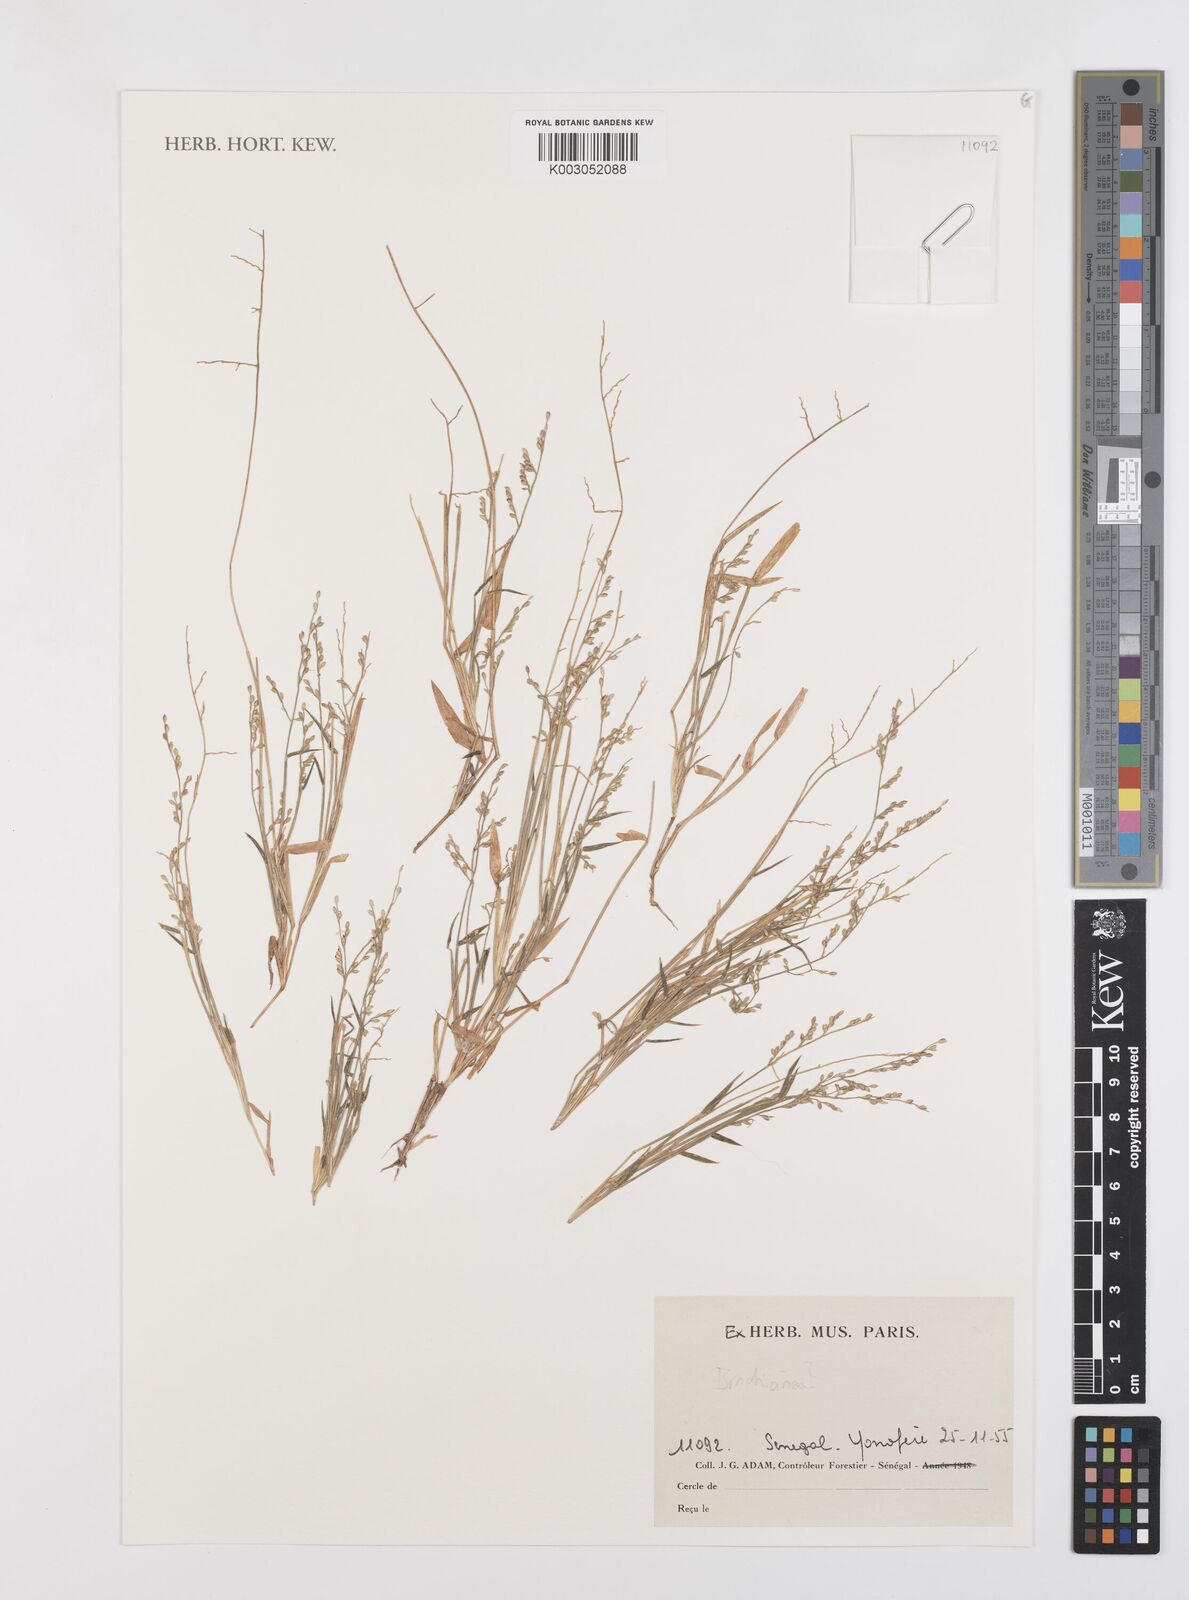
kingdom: Plantae
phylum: Tracheophyta
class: Liliopsida
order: Poales
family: Poaceae
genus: Brachiaria
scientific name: Brachiaria
